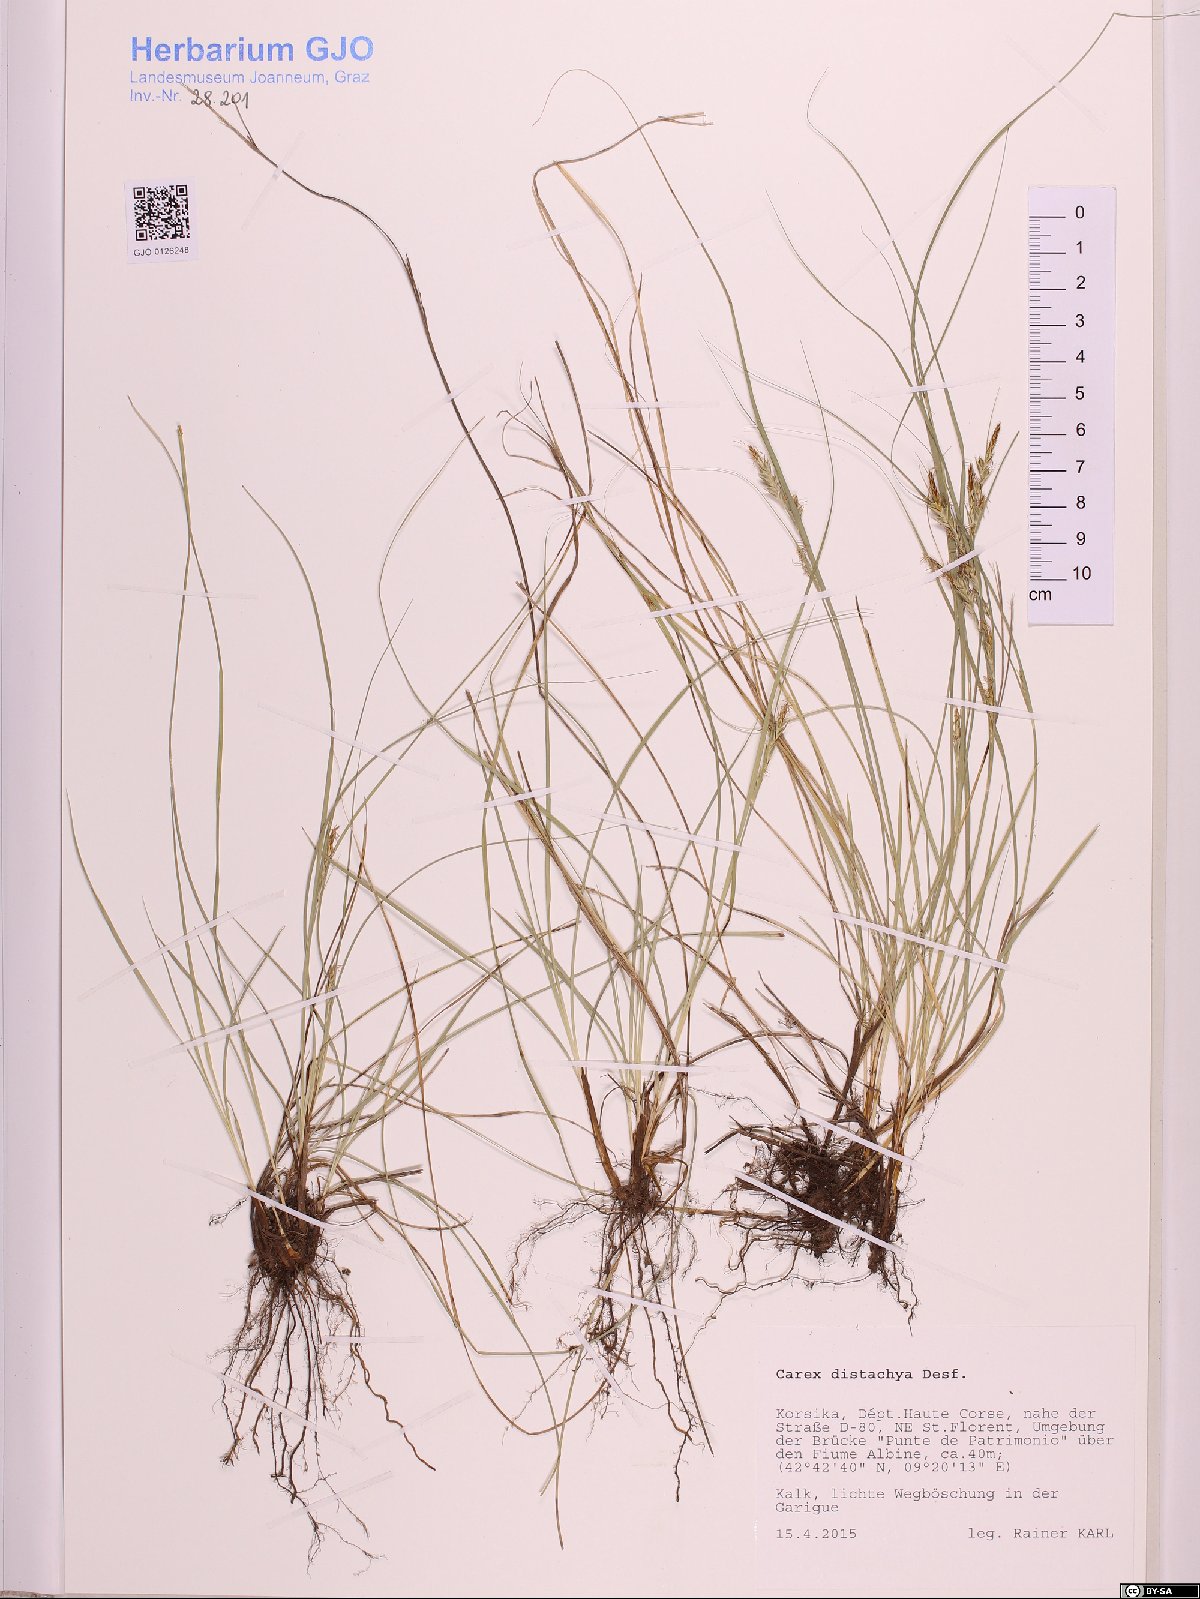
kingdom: Plantae
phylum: Tracheophyta
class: Liliopsida
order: Poales
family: Cyperaceae
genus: Carex
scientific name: Carex distachya
